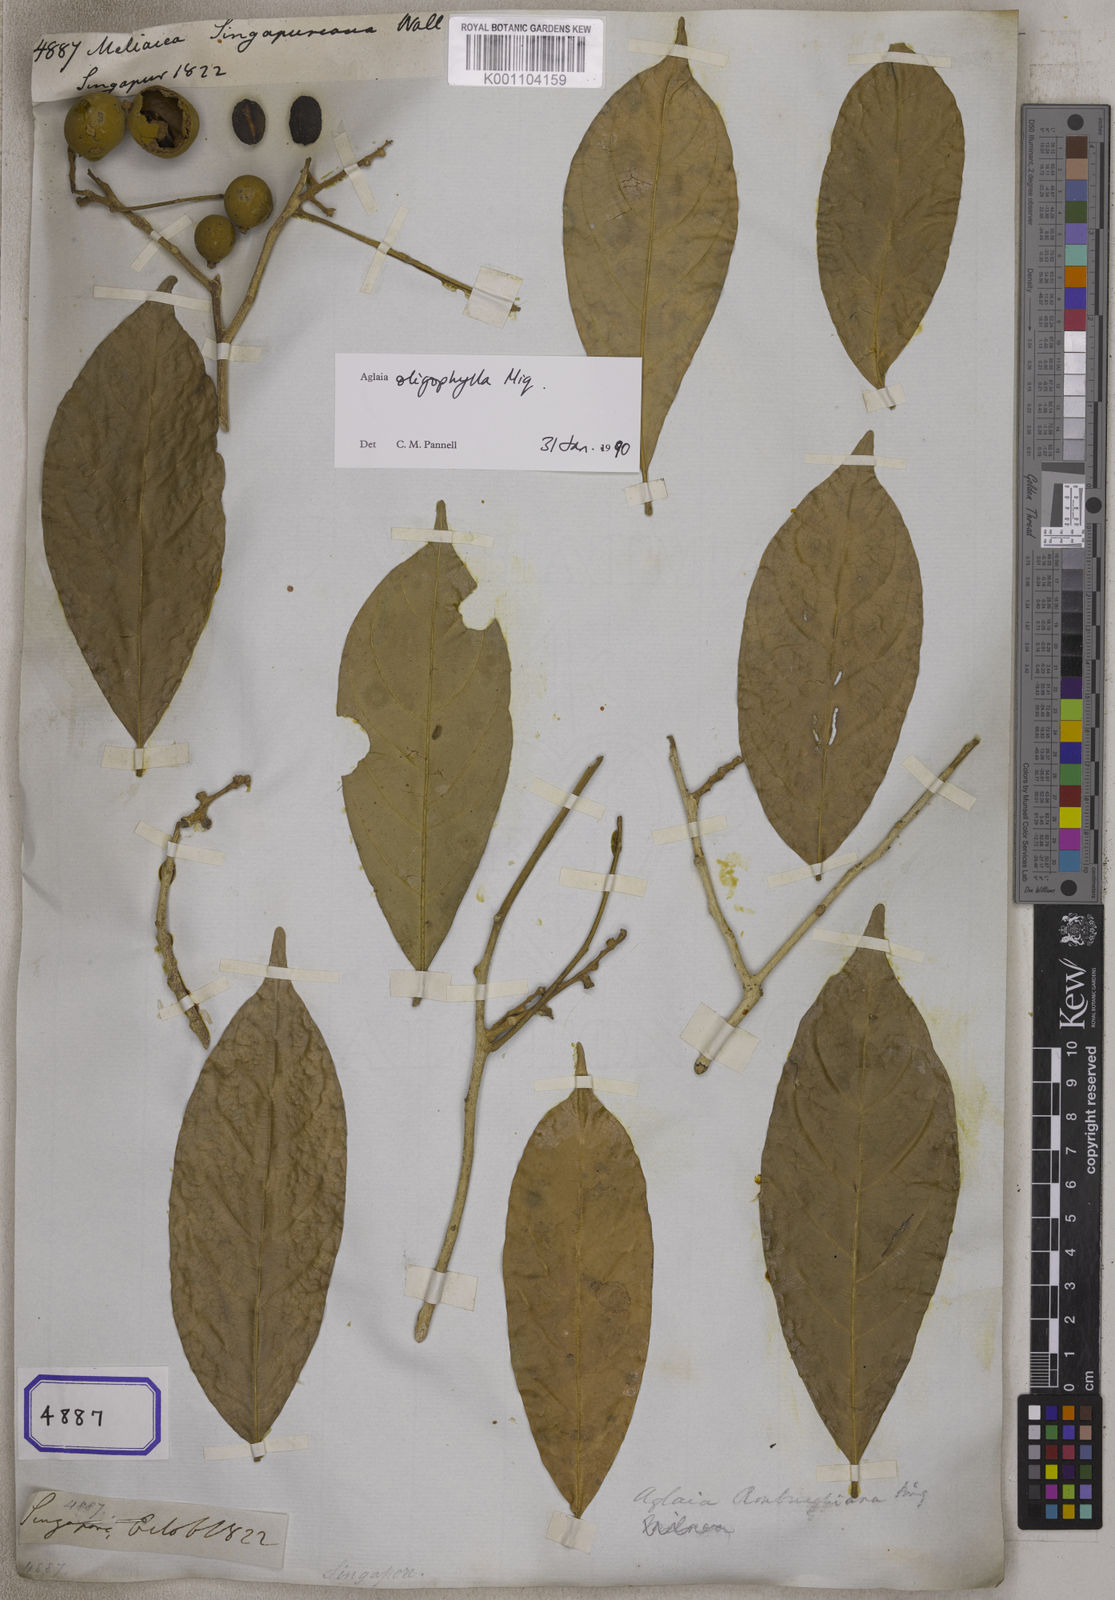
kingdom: Plantae
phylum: Tracheophyta
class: Magnoliopsida
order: Sapindales
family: Meliaceae
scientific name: Meliaceae
